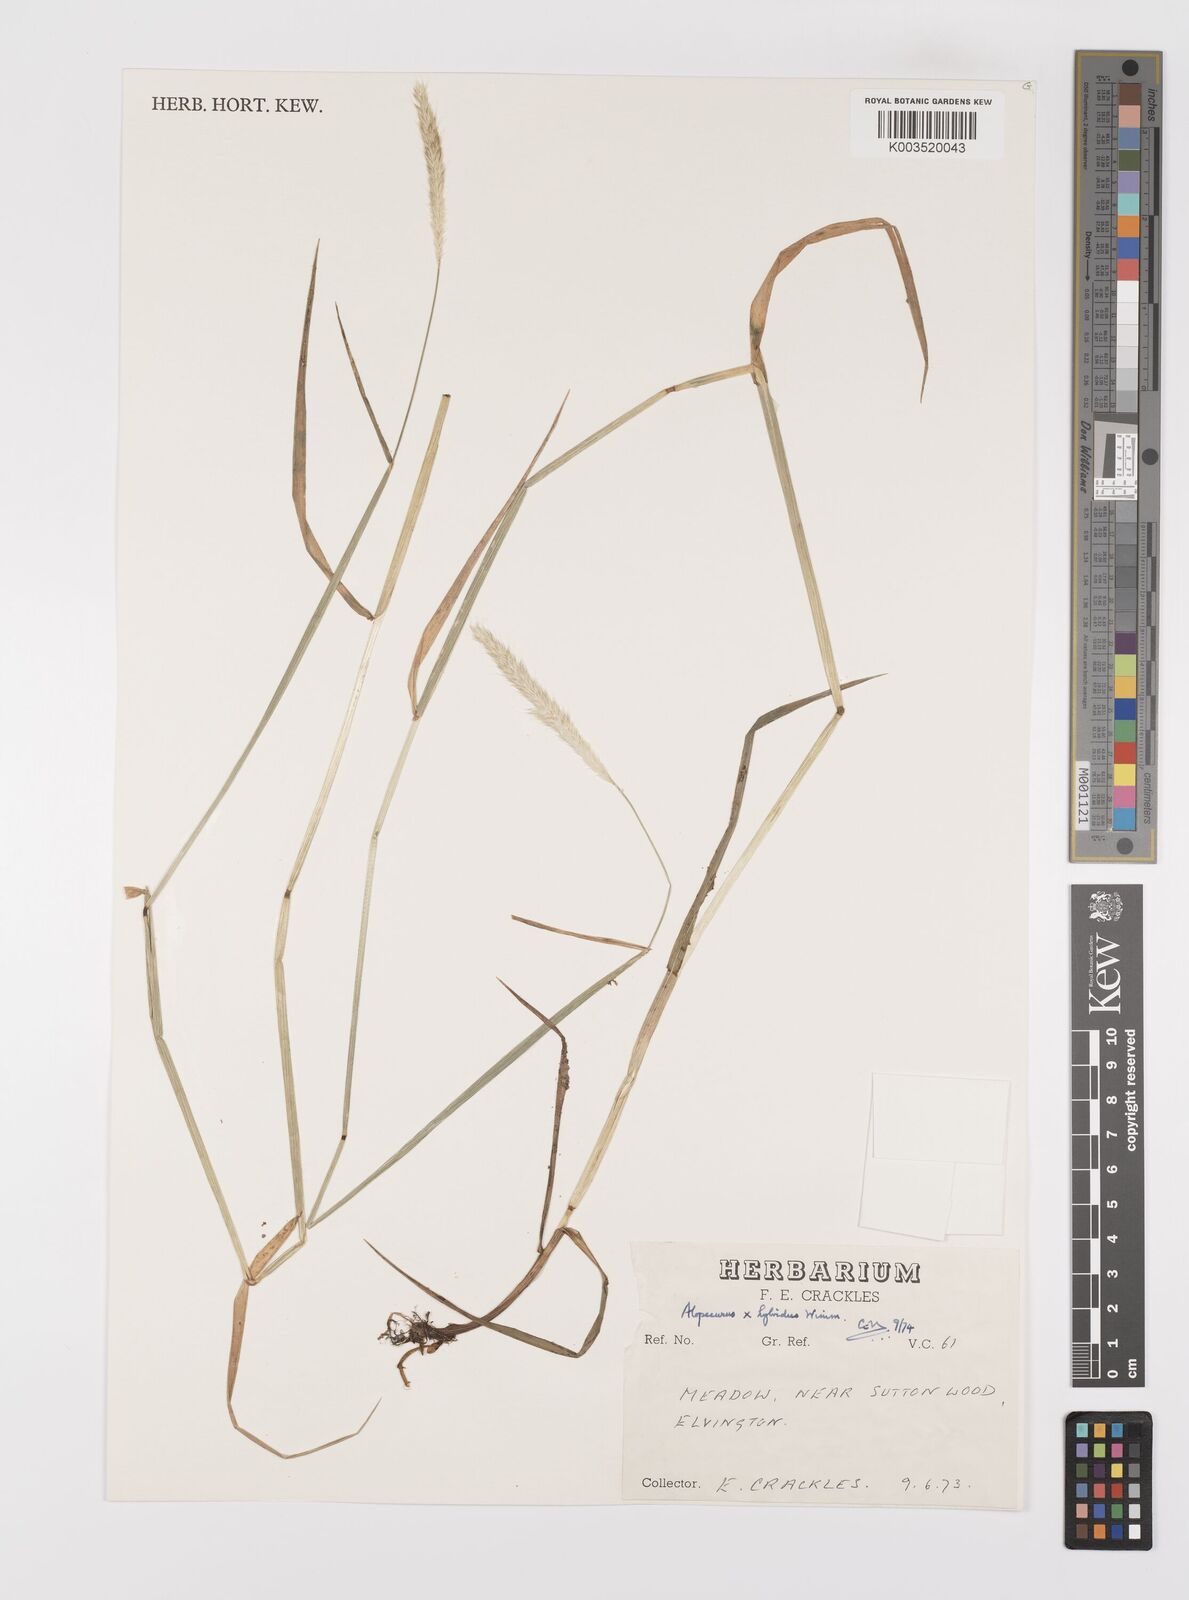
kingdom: Plantae
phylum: Tracheophyta
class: Liliopsida
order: Poales
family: Poaceae
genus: Alopecurus
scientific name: Alopecurus brachystylus
